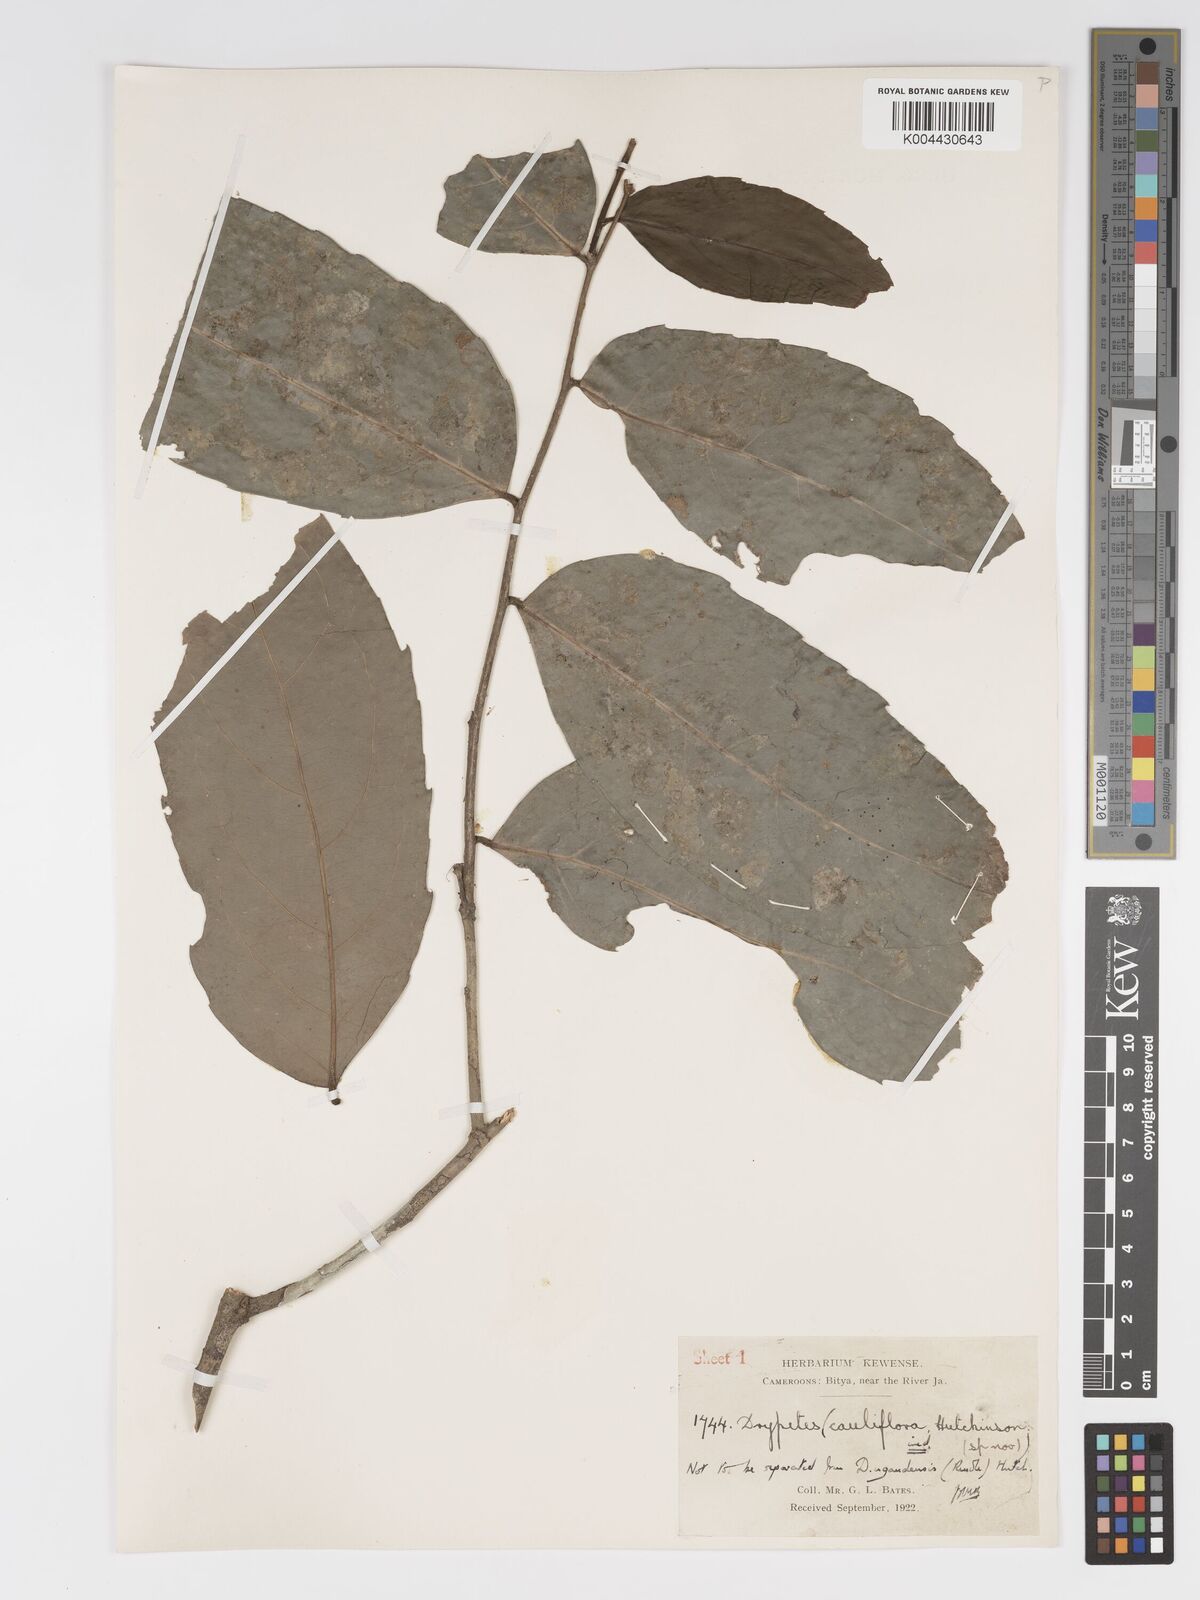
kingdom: Plantae
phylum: Tracheophyta
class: Magnoliopsida
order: Malpighiales
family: Putranjivaceae
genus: Drypetes
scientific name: Drypetes ugandensis
